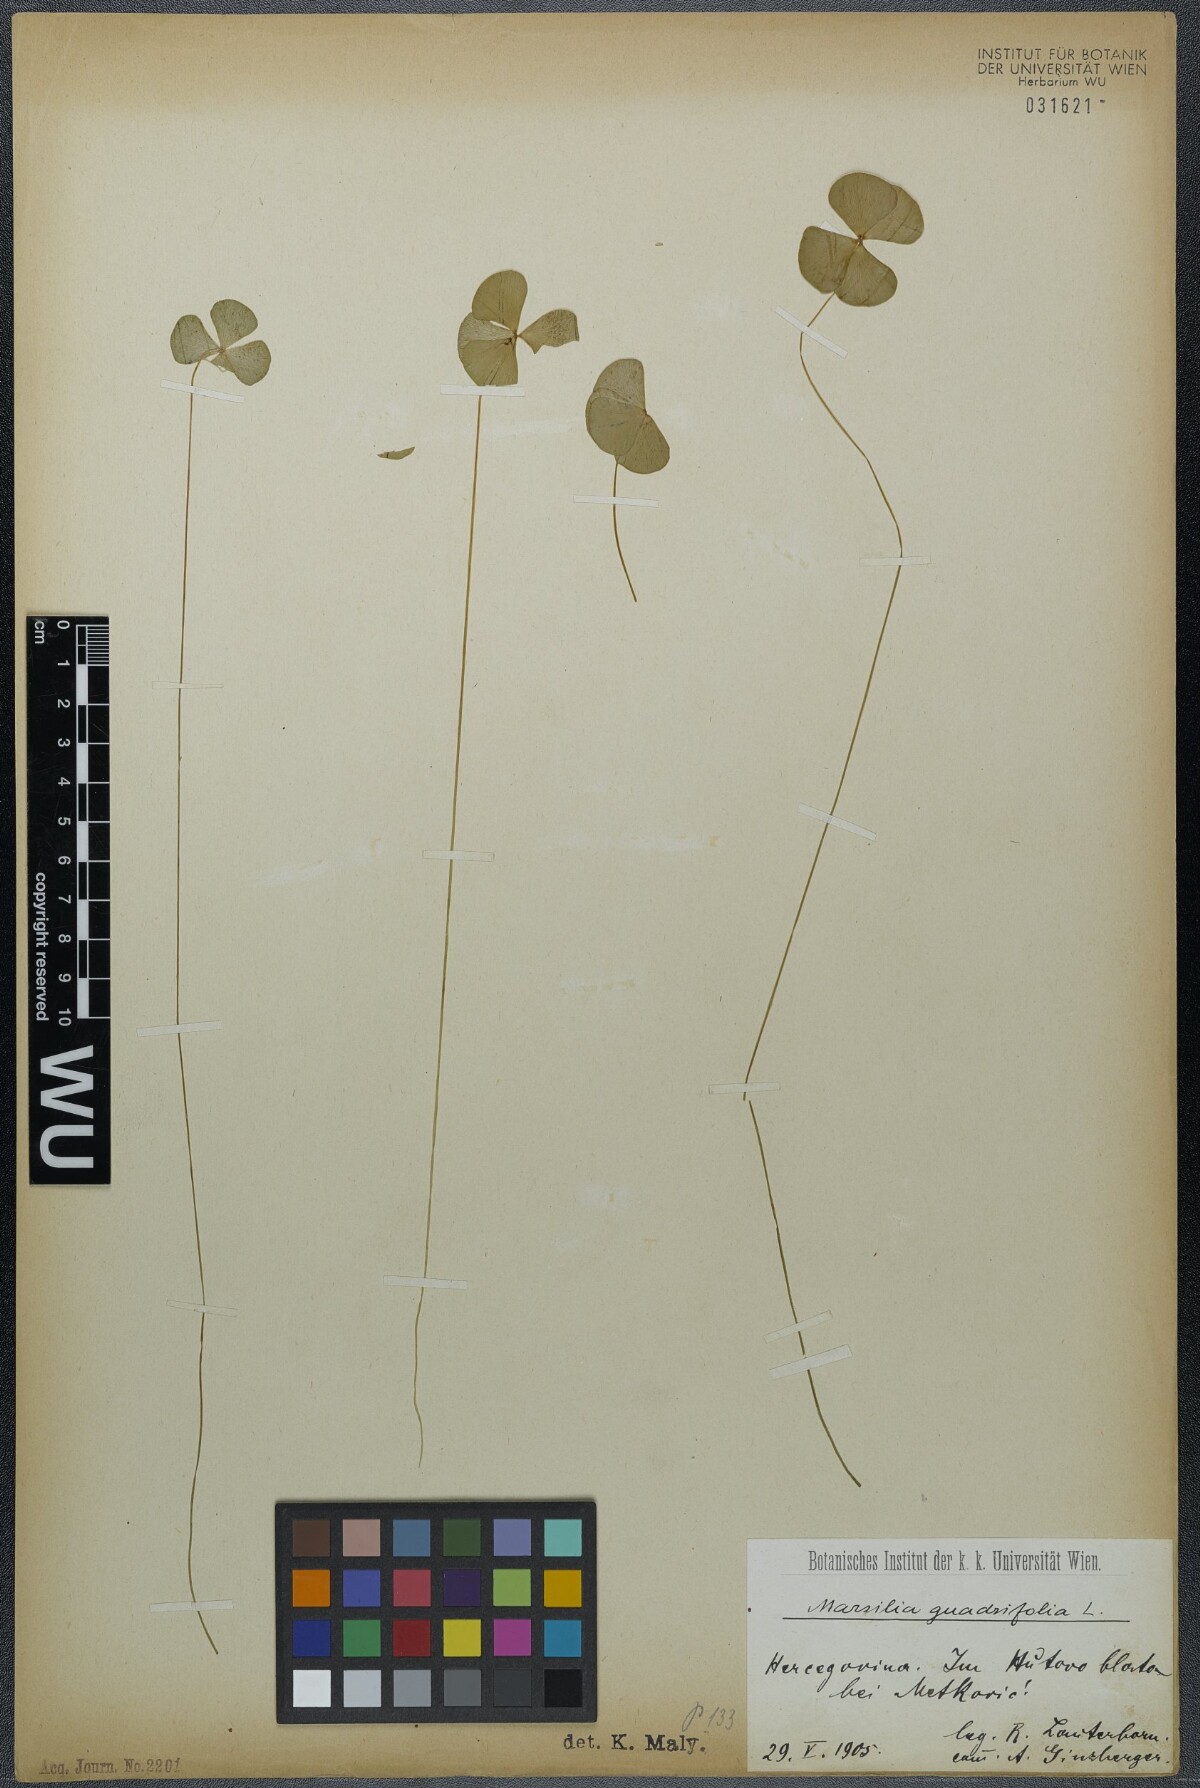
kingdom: Plantae
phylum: Tracheophyta
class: Polypodiopsida
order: Salviniales
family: Marsileaceae
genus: Marsilea
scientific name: Marsilea quadrifolia
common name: Water shamrock
